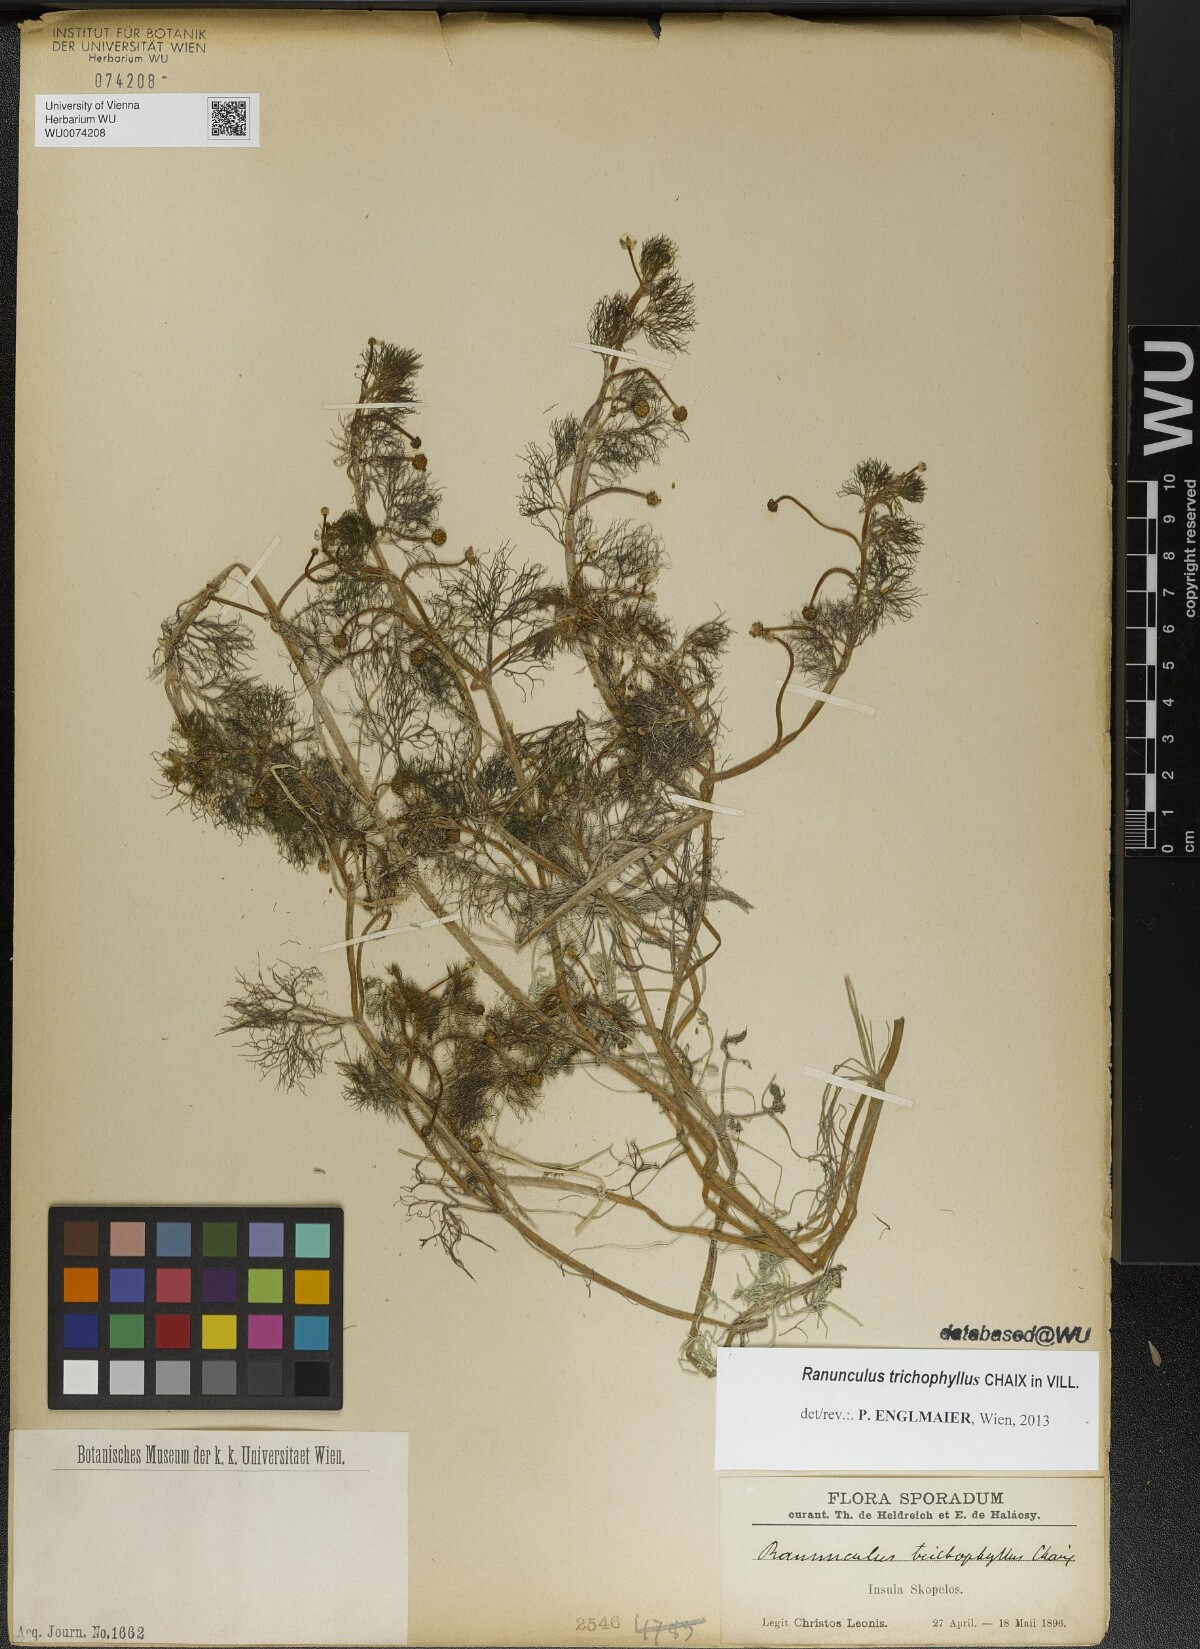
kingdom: Plantae
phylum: Tracheophyta
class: Magnoliopsida
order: Ranunculales
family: Ranunculaceae
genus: Ranunculus
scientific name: Ranunculus trichophyllus
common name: Thread-leaved water-crowfoot
